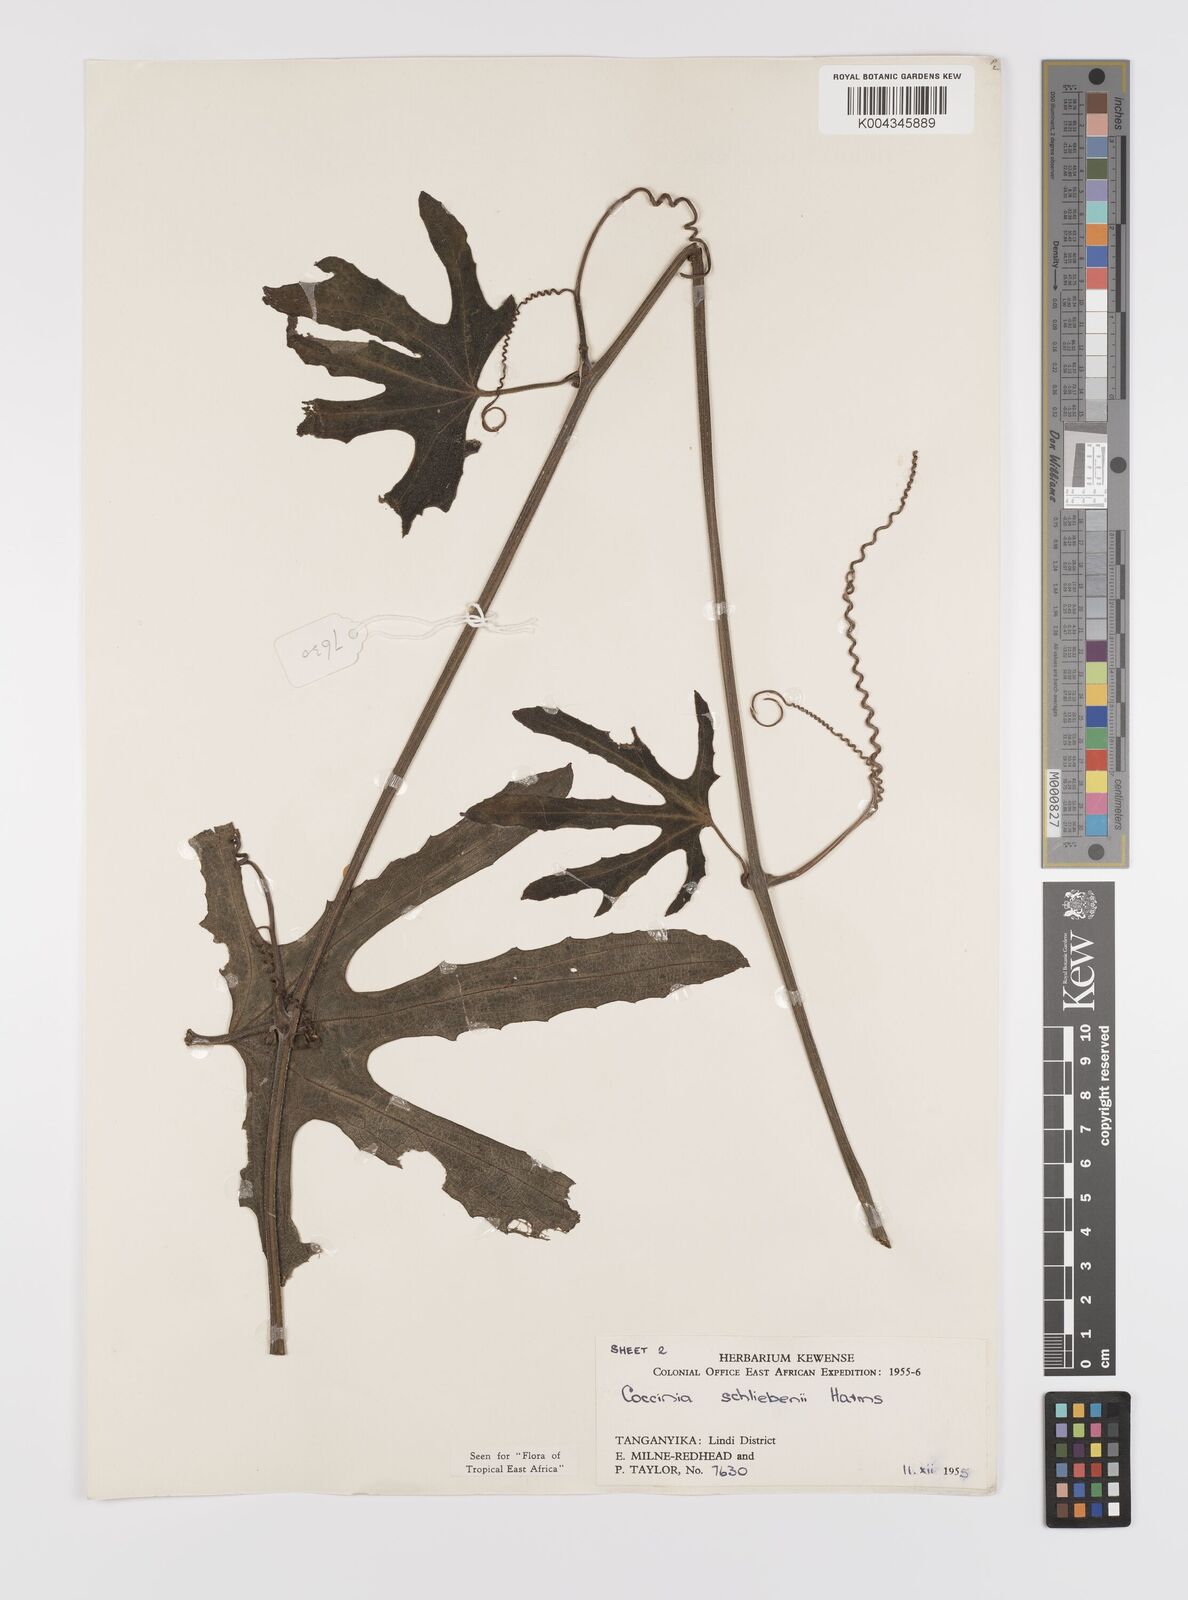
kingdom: Plantae
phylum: Tracheophyta
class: Magnoliopsida
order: Cucurbitales
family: Cucurbitaceae
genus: Coccinia
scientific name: Coccinia schliebenii
